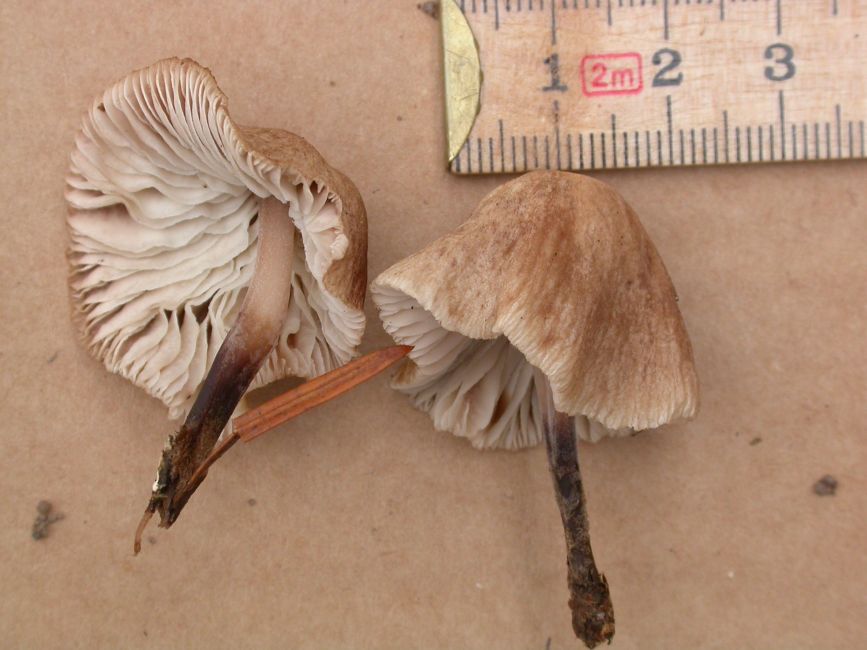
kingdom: Fungi
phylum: Basidiomycota
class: Agaricomycetes
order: Agaricales
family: Omphalotaceae
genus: Gymnopus
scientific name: Gymnopus inodorus
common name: lugtløs fladhat
